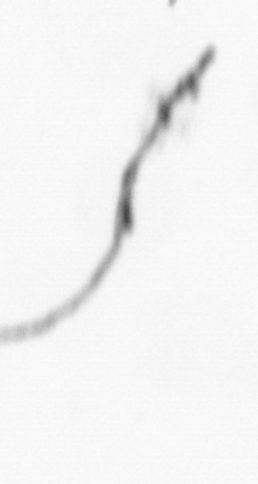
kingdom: Chromista
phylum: Ochrophyta
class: Bacillariophyceae
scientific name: Bacillariophyceae
